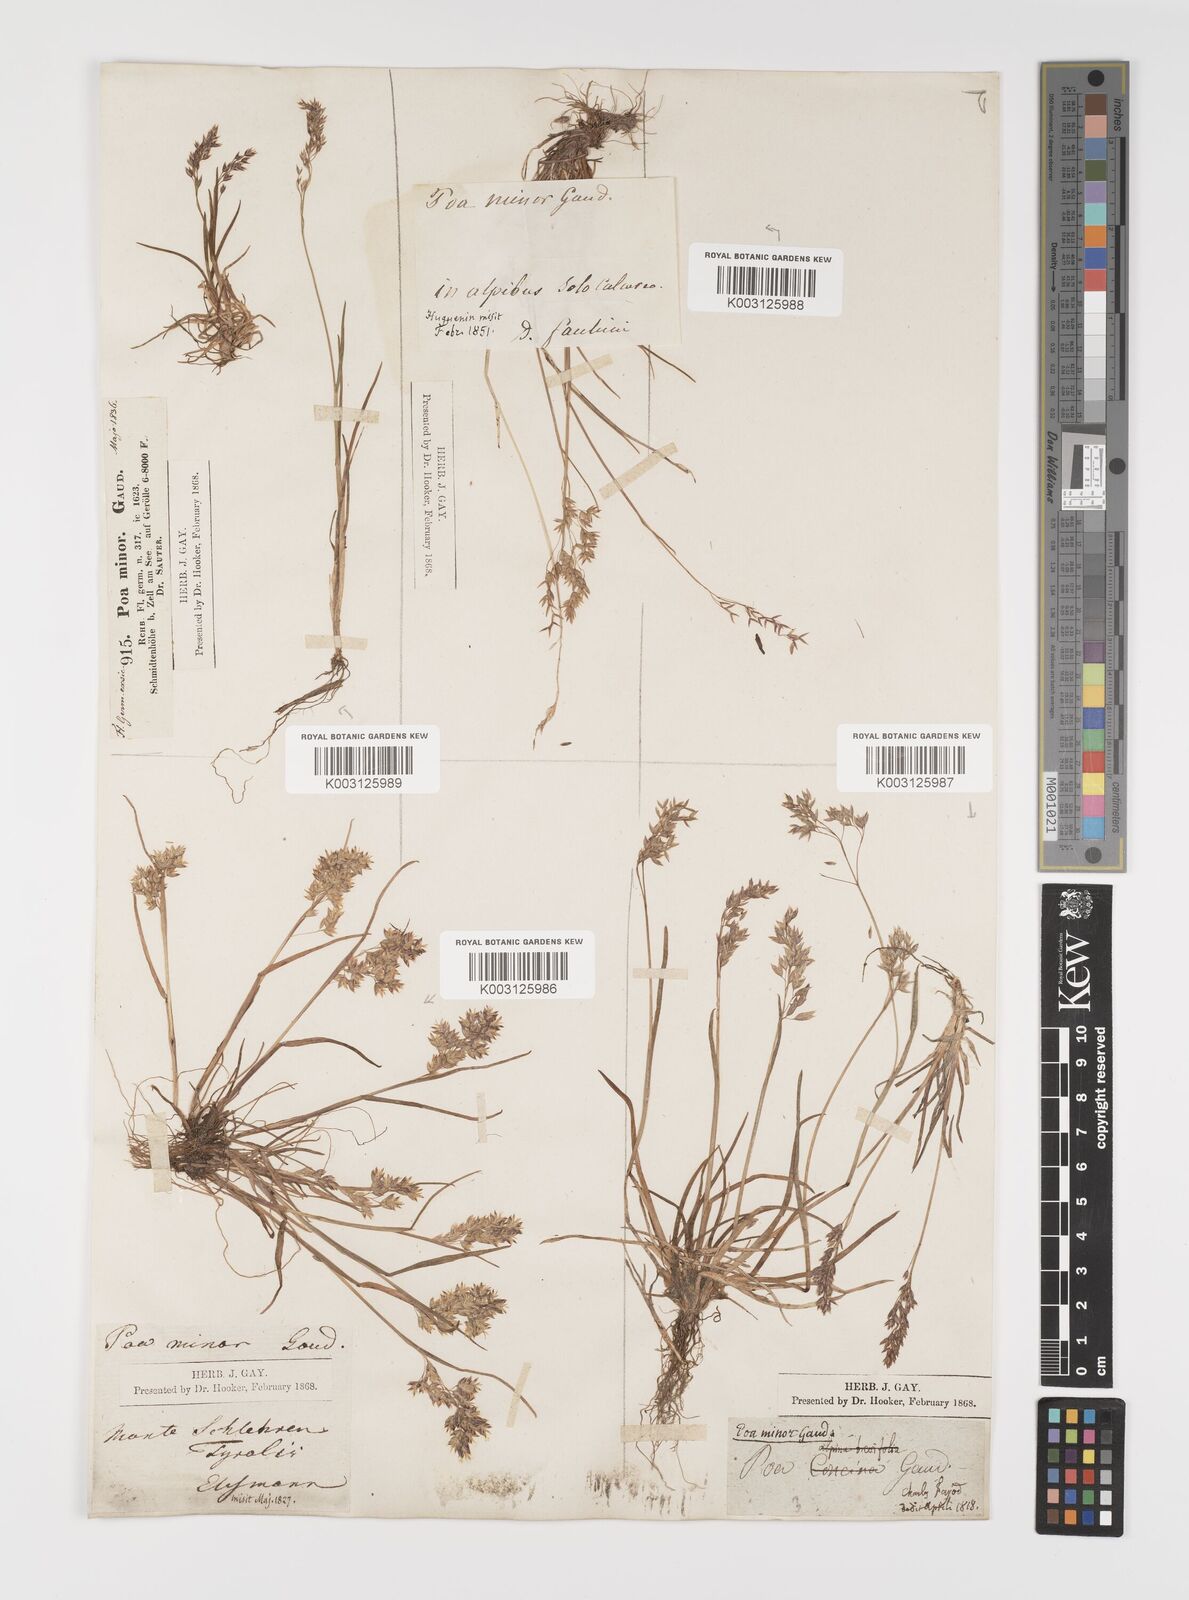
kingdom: Plantae
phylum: Tracheophyta
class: Liliopsida
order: Poales
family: Poaceae
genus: Poa
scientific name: Poa minor
